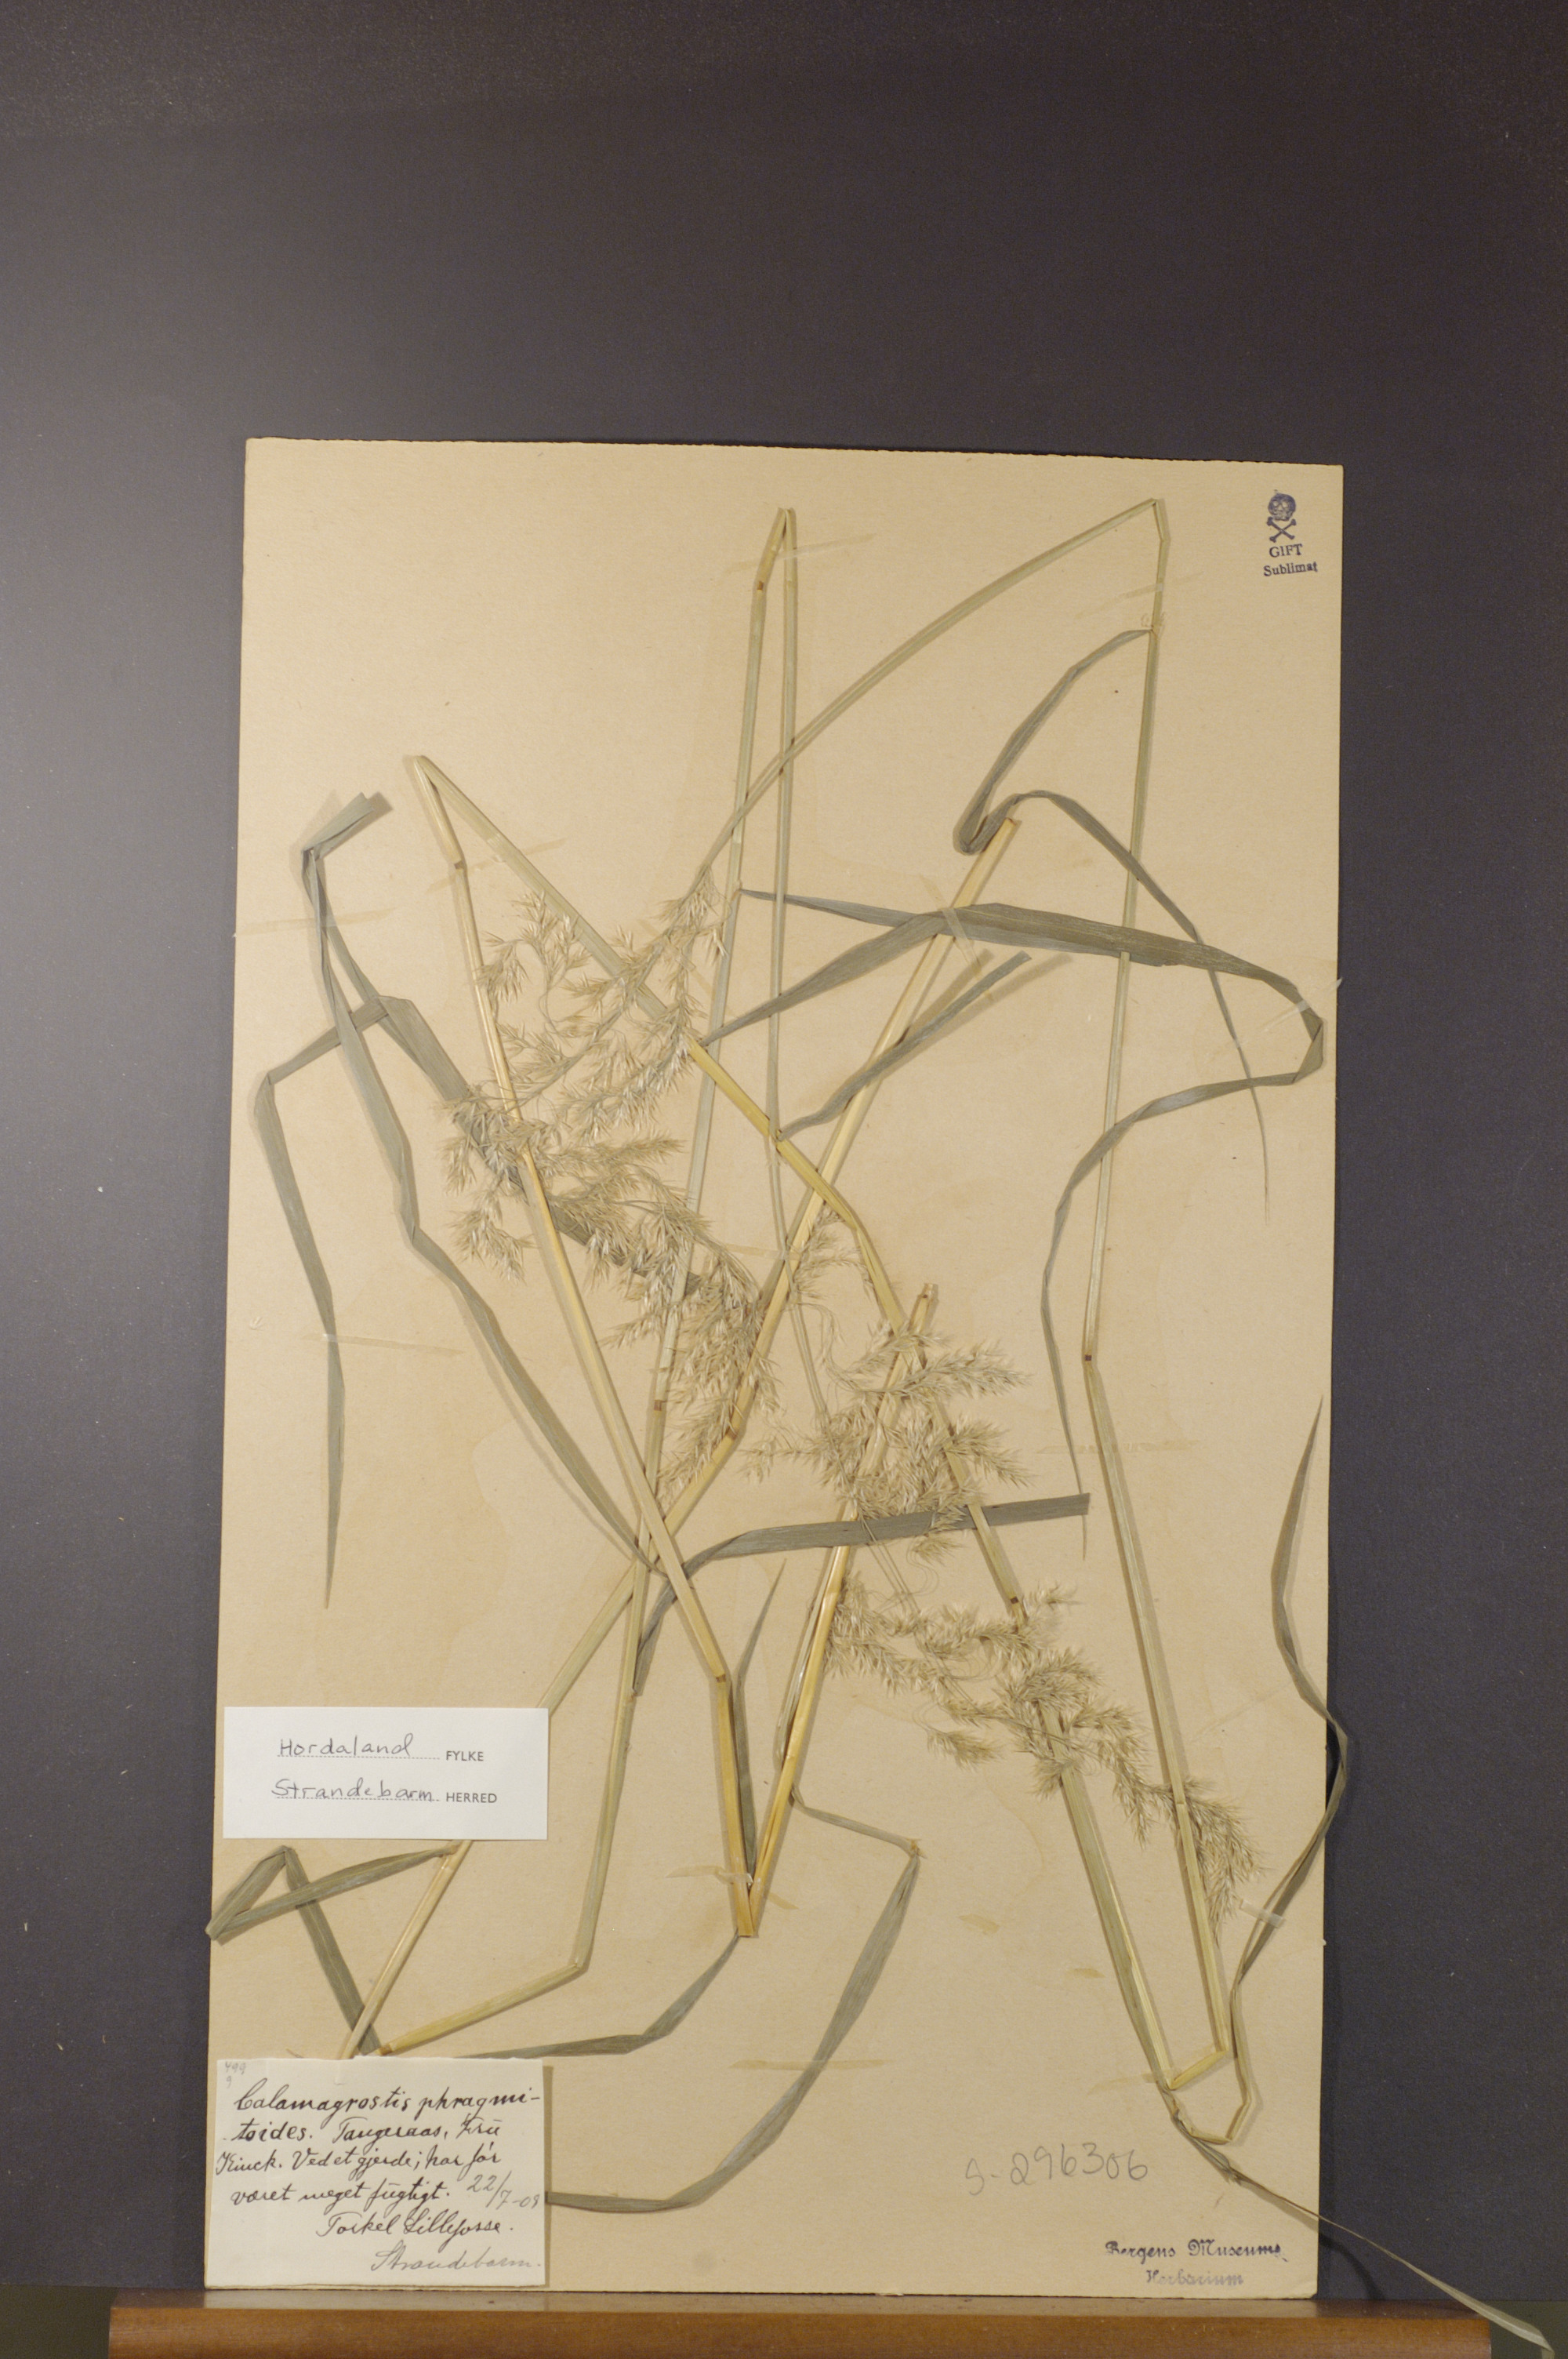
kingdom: Plantae
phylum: Tracheophyta
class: Liliopsida
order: Poales
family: Poaceae
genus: Calamagrostis
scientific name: Calamagrostis purpurea
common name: Scandinavian small-reed
